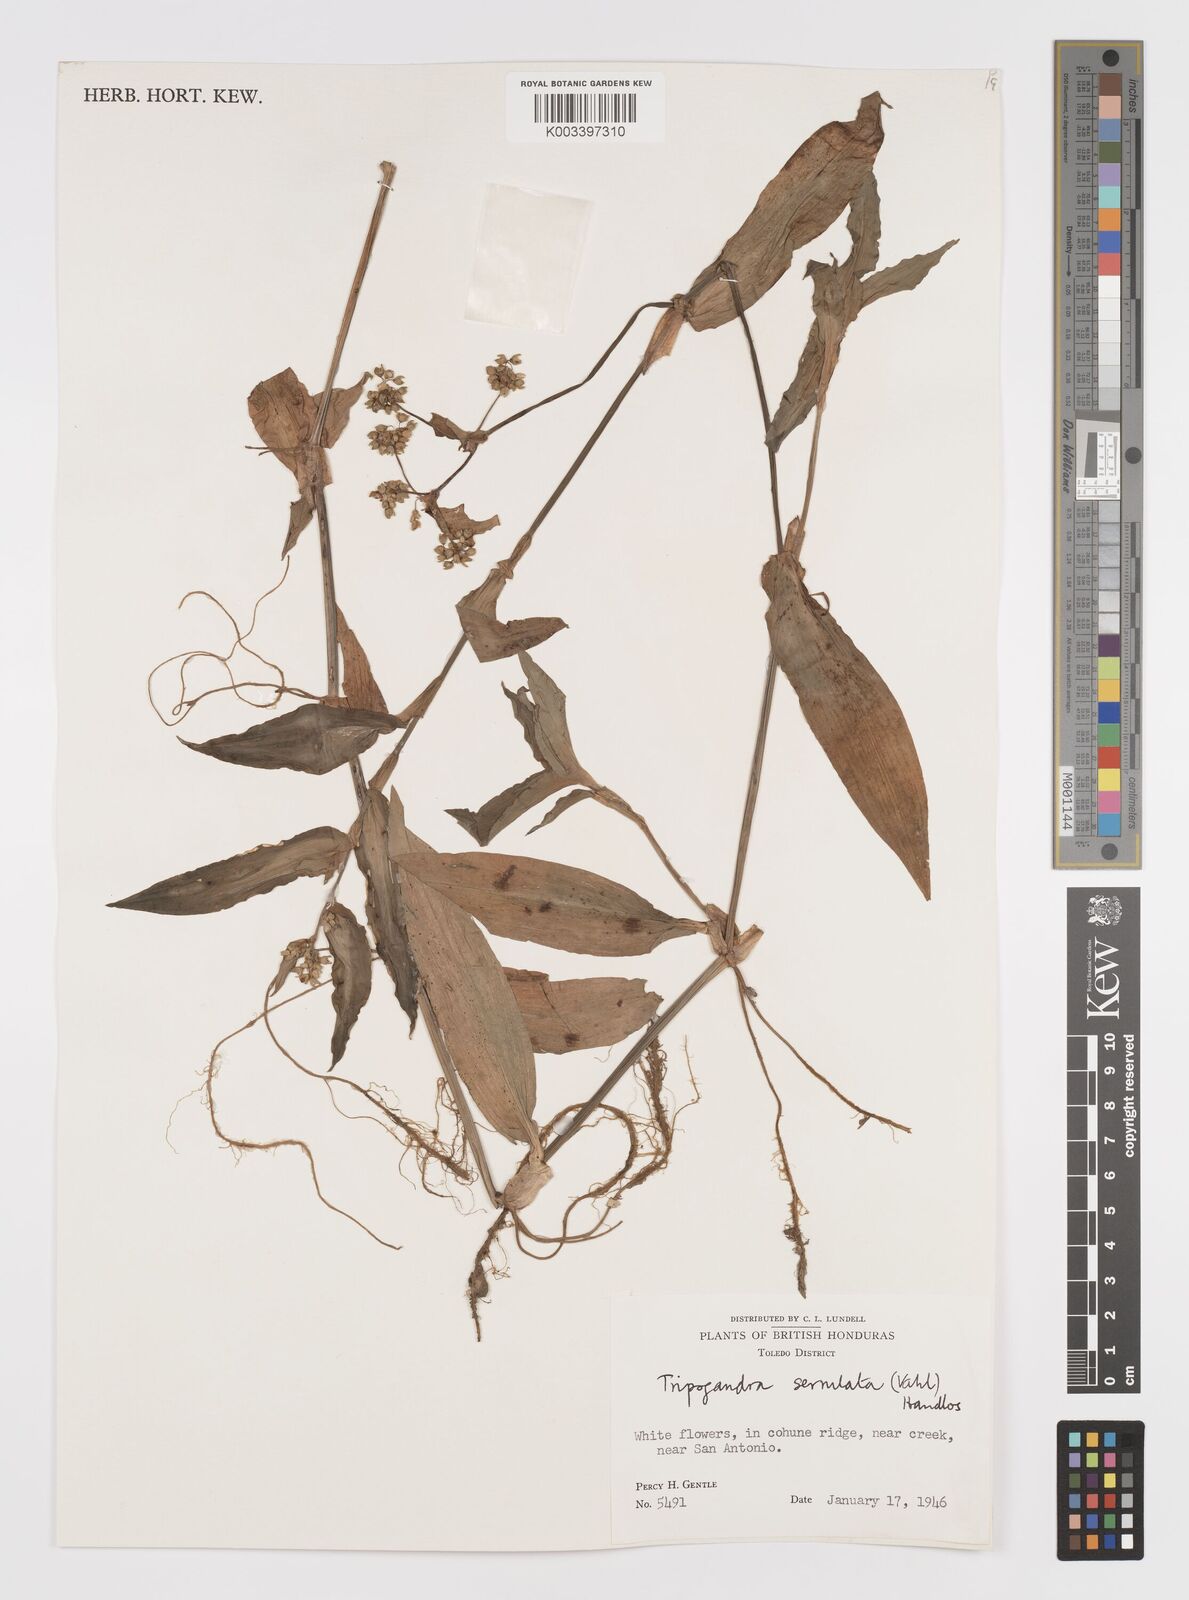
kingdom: Plantae
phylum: Tracheophyta
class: Liliopsida
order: Commelinales
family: Commelinaceae
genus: Callisia
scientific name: Callisia serrulata
